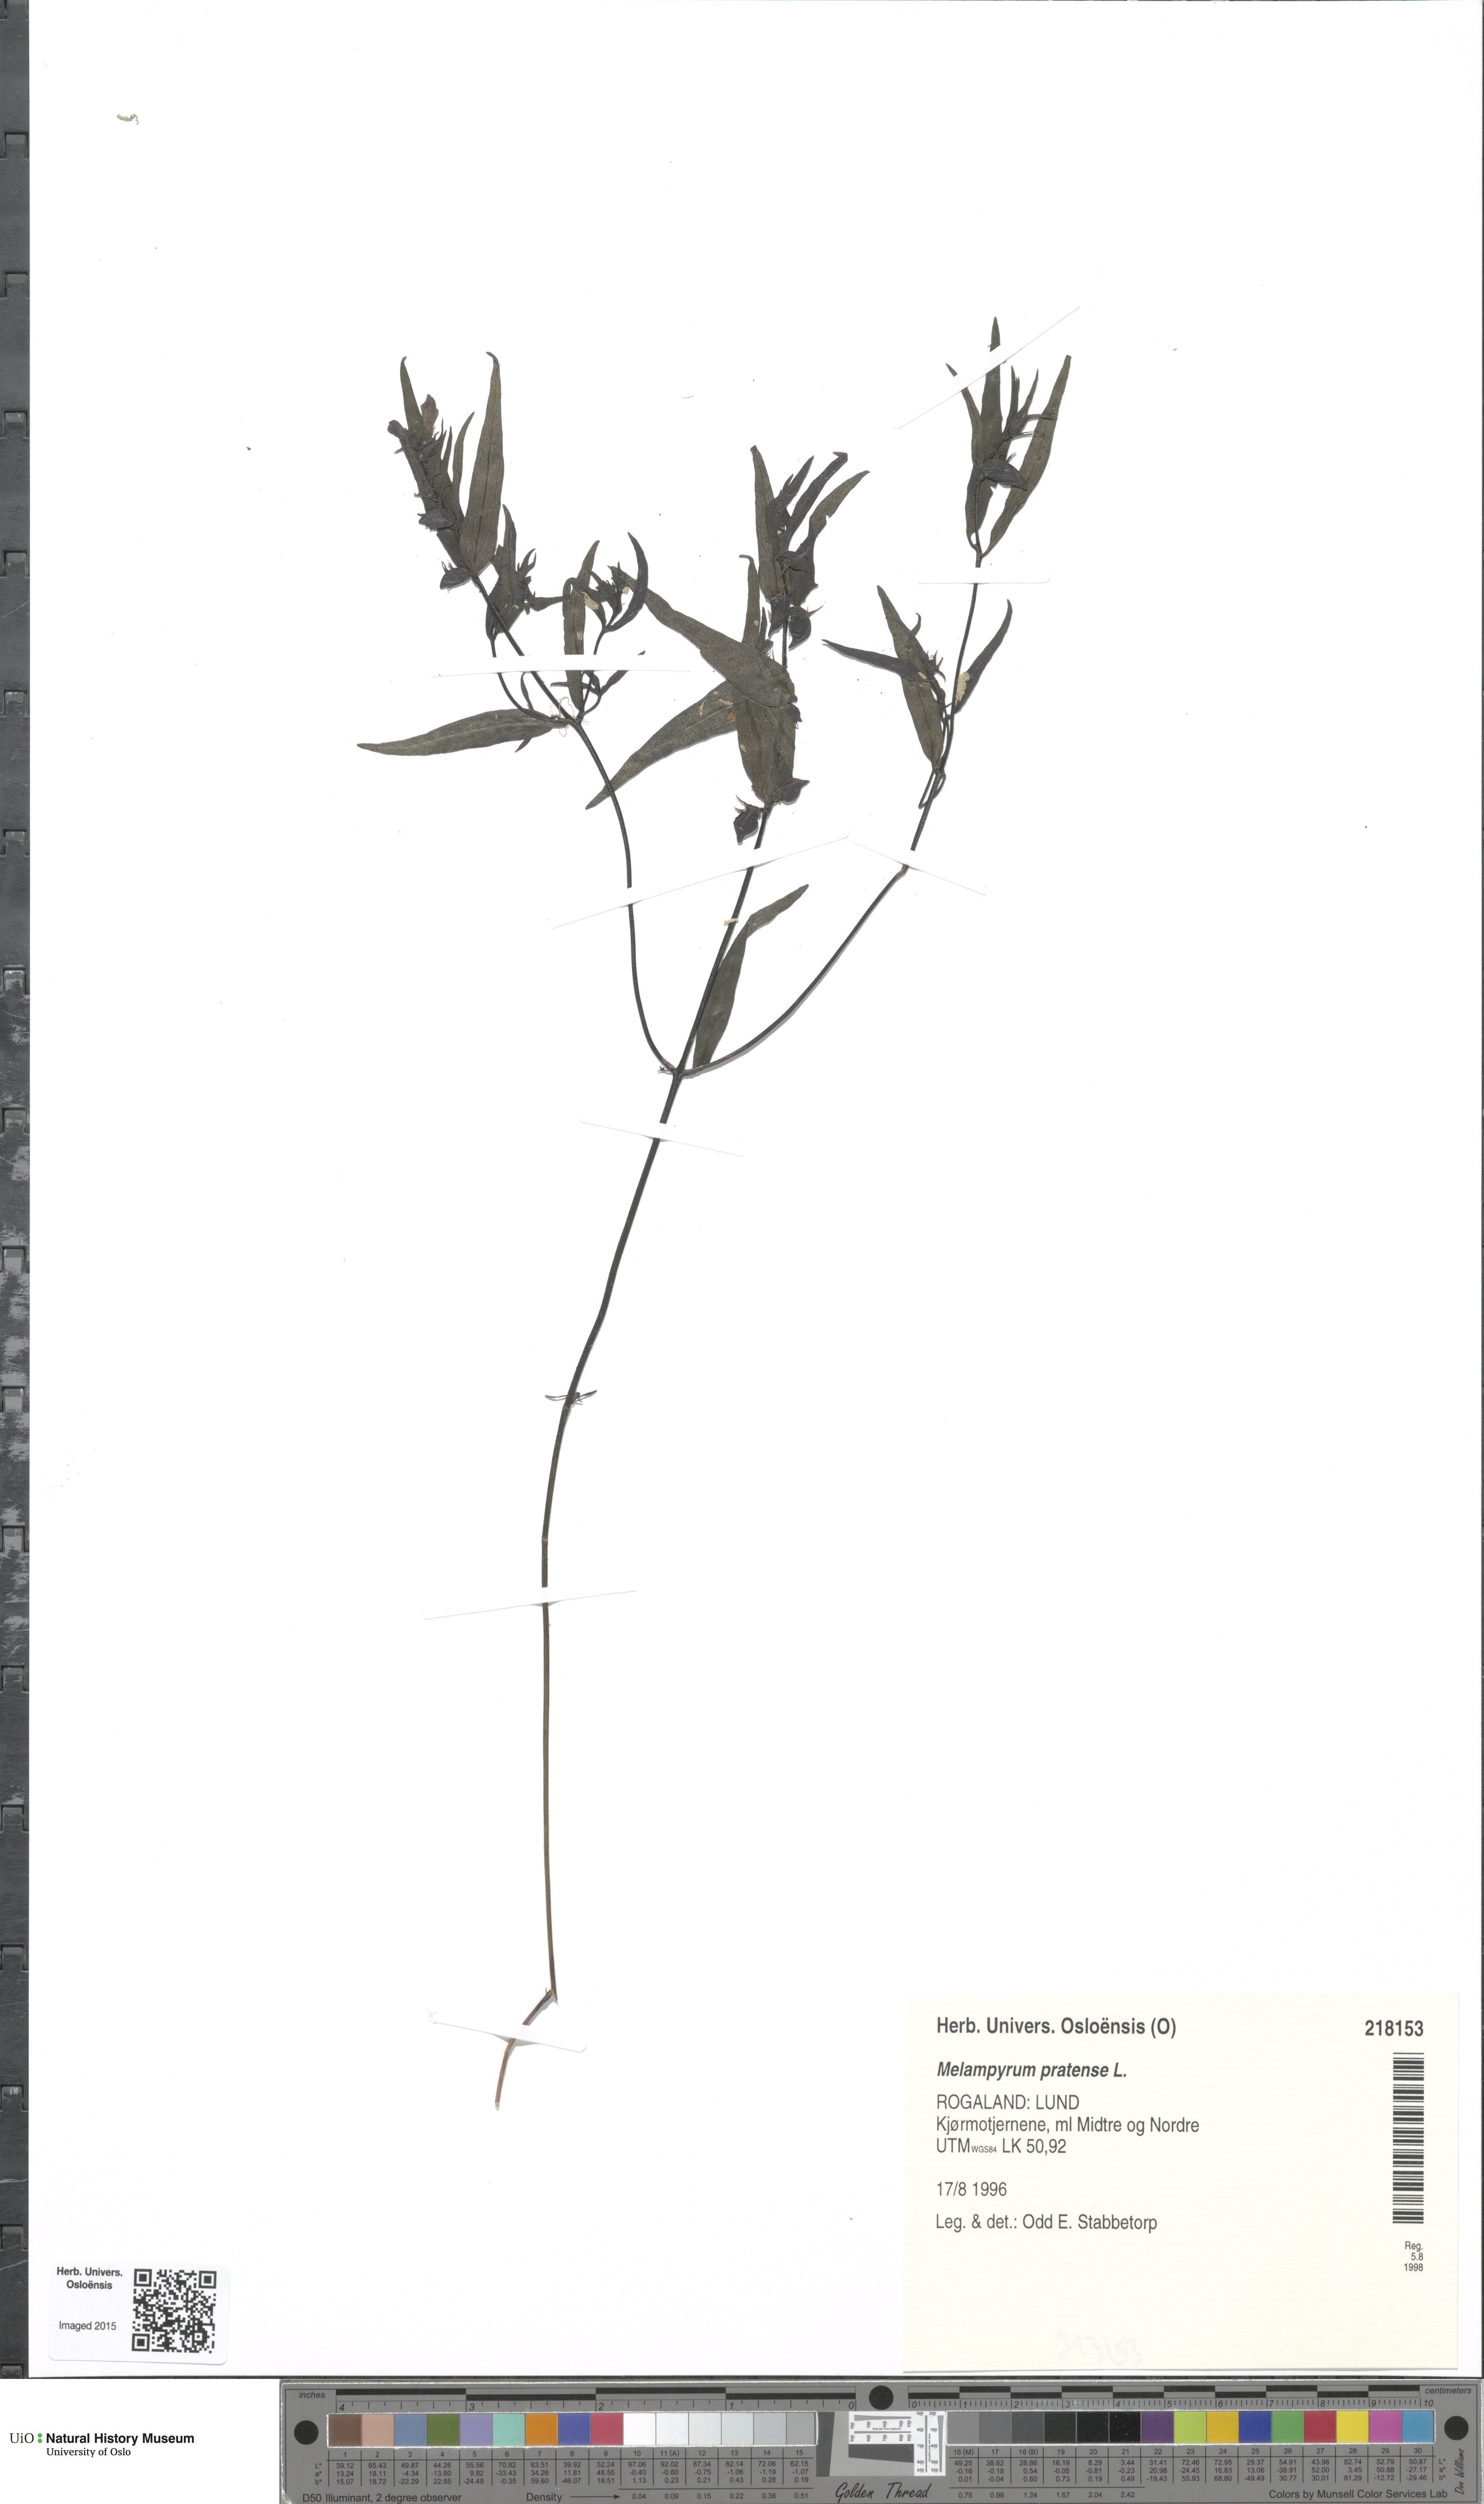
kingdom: Plantae
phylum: Tracheophyta
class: Magnoliopsida
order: Lamiales
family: Orobanchaceae
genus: Melampyrum
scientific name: Melampyrum pratense
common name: Common cow-wheat
